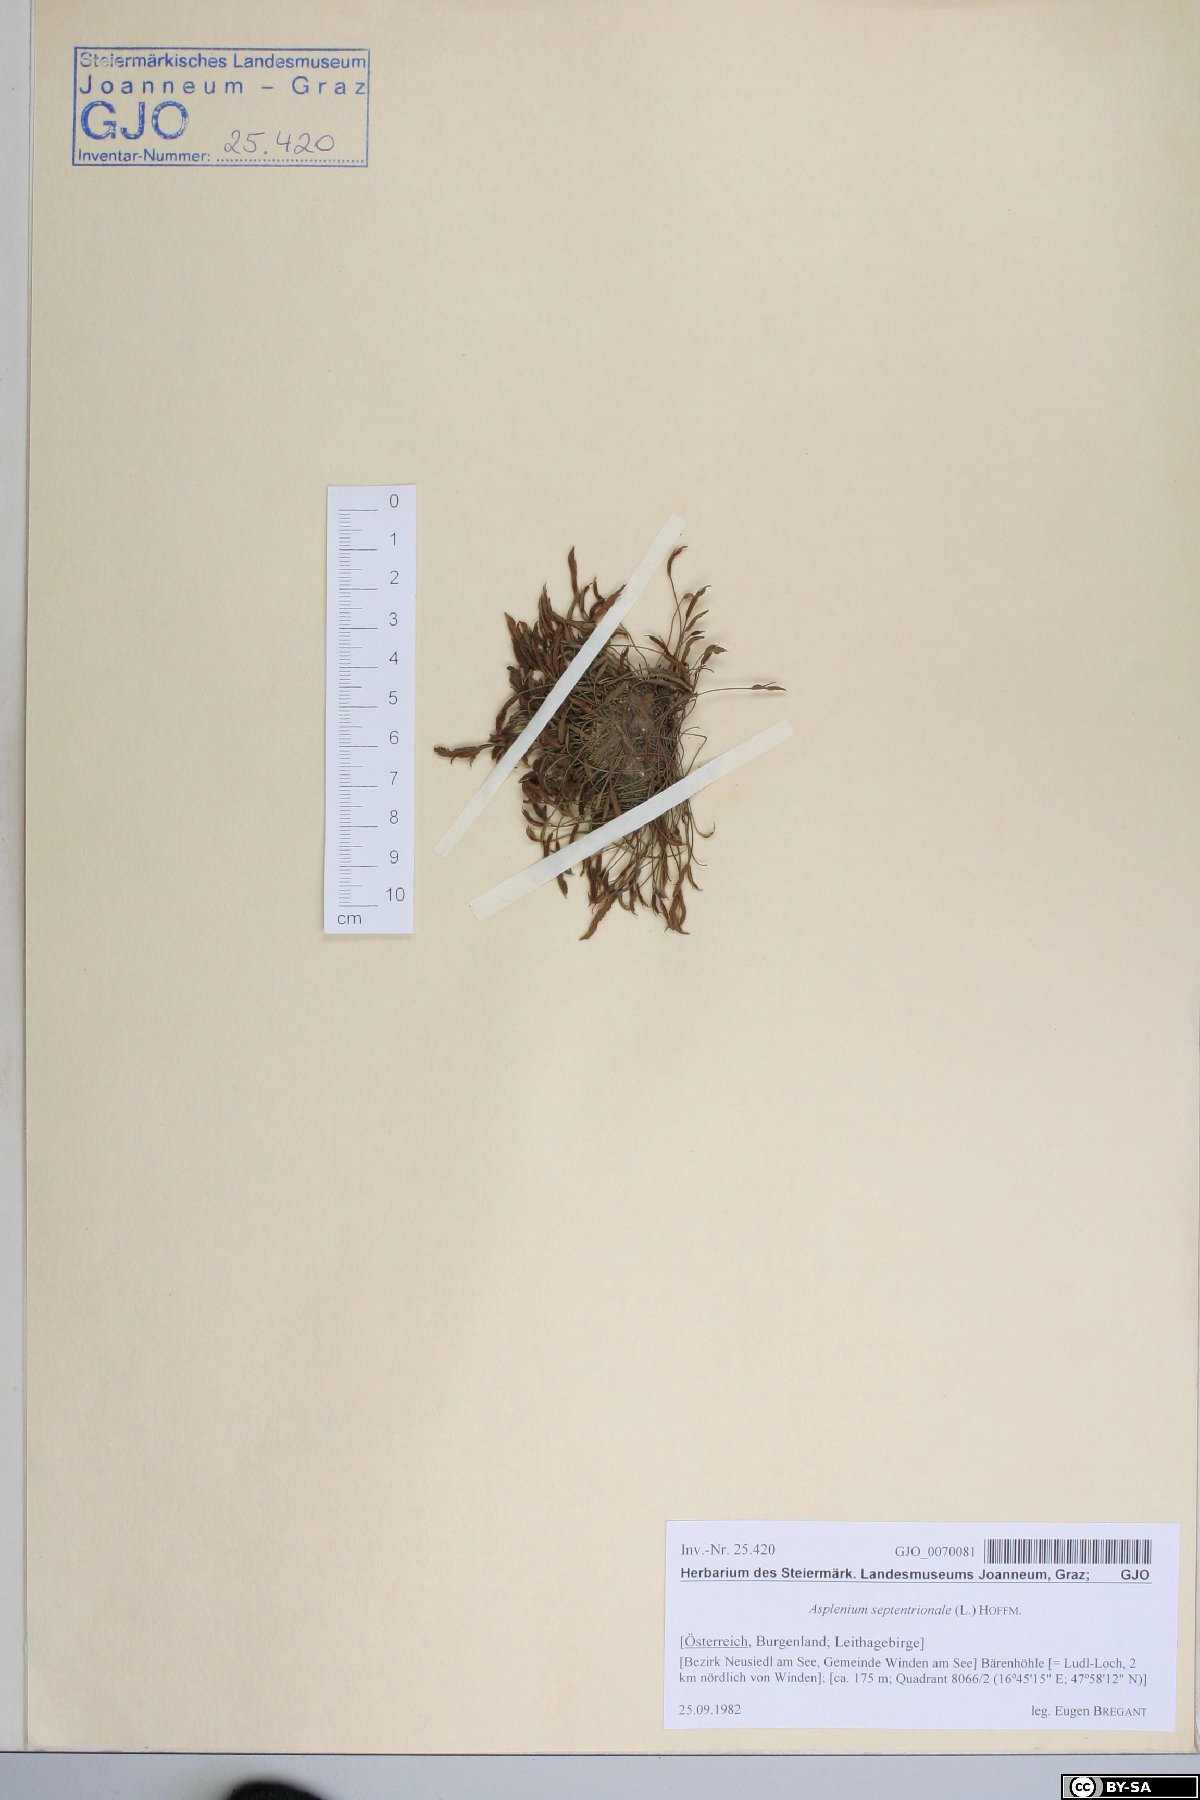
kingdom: Plantae
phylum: Tracheophyta
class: Polypodiopsida
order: Polypodiales
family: Aspleniaceae
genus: Asplenium
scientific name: Asplenium septentrionale
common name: Forked spleenwort
